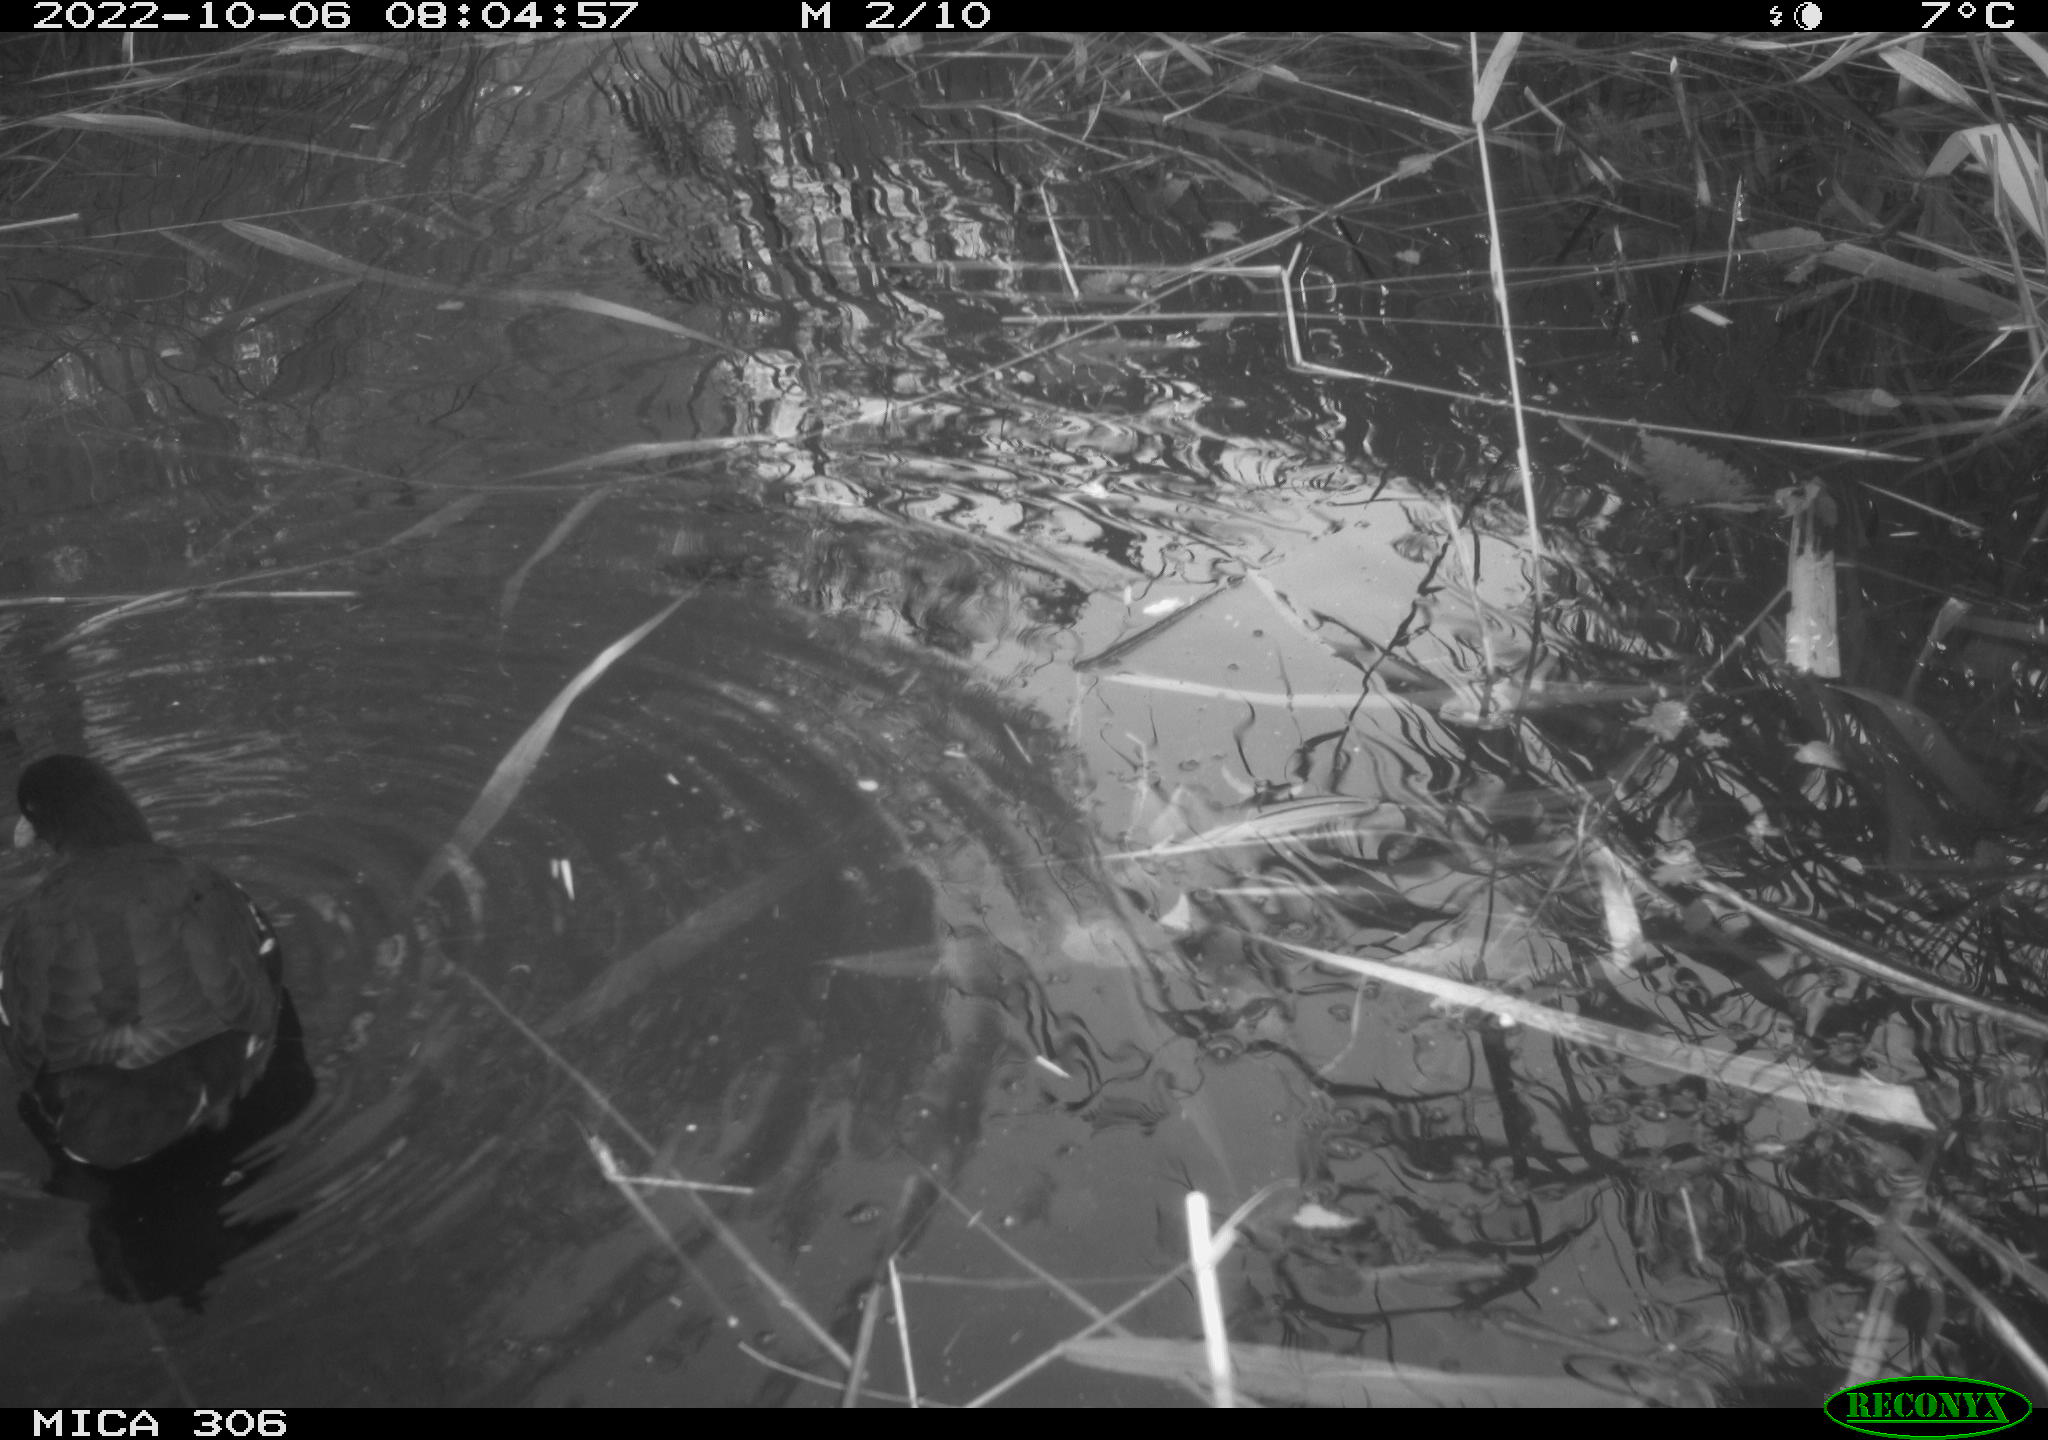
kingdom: Animalia
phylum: Chordata
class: Aves
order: Gruiformes
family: Rallidae
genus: Fulica
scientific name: Fulica atra
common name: Eurasian coot
